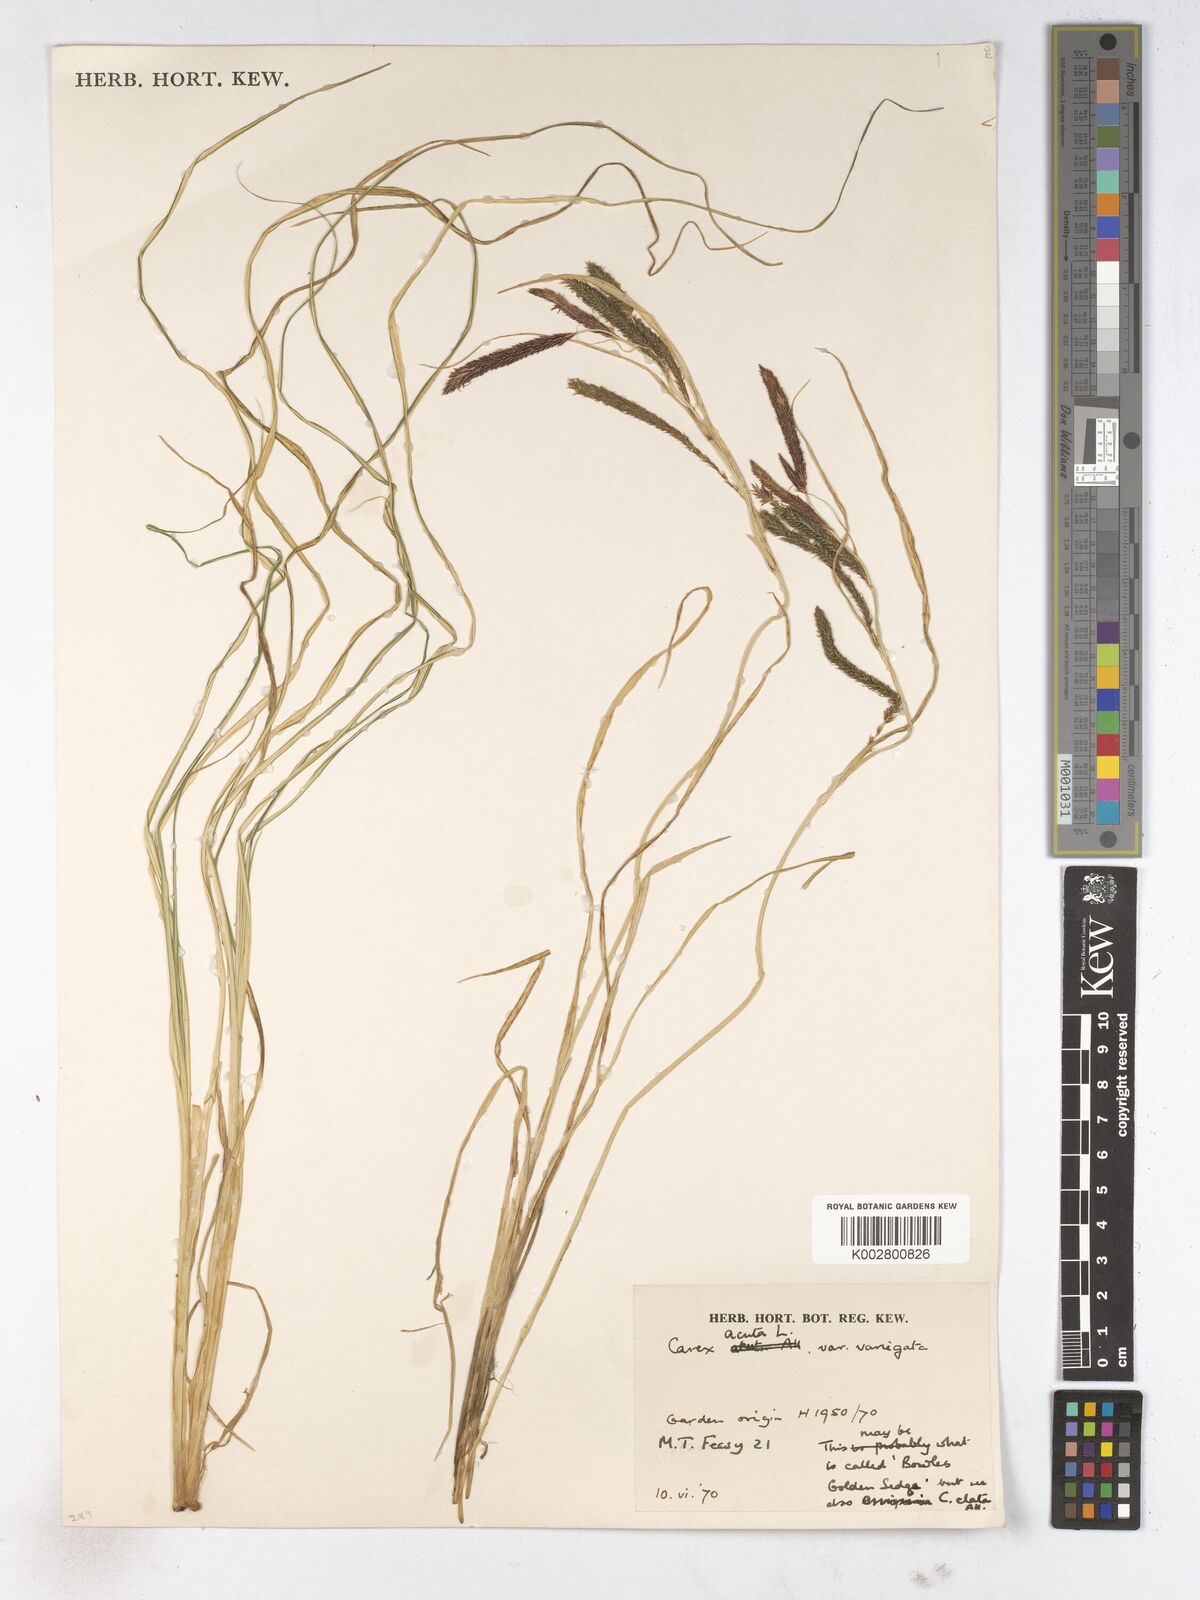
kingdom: Plantae
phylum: Tracheophyta
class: Liliopsida
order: Poales
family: Cyperaceae
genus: Carex
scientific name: Carex acuta
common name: Slender tufted-sedge
